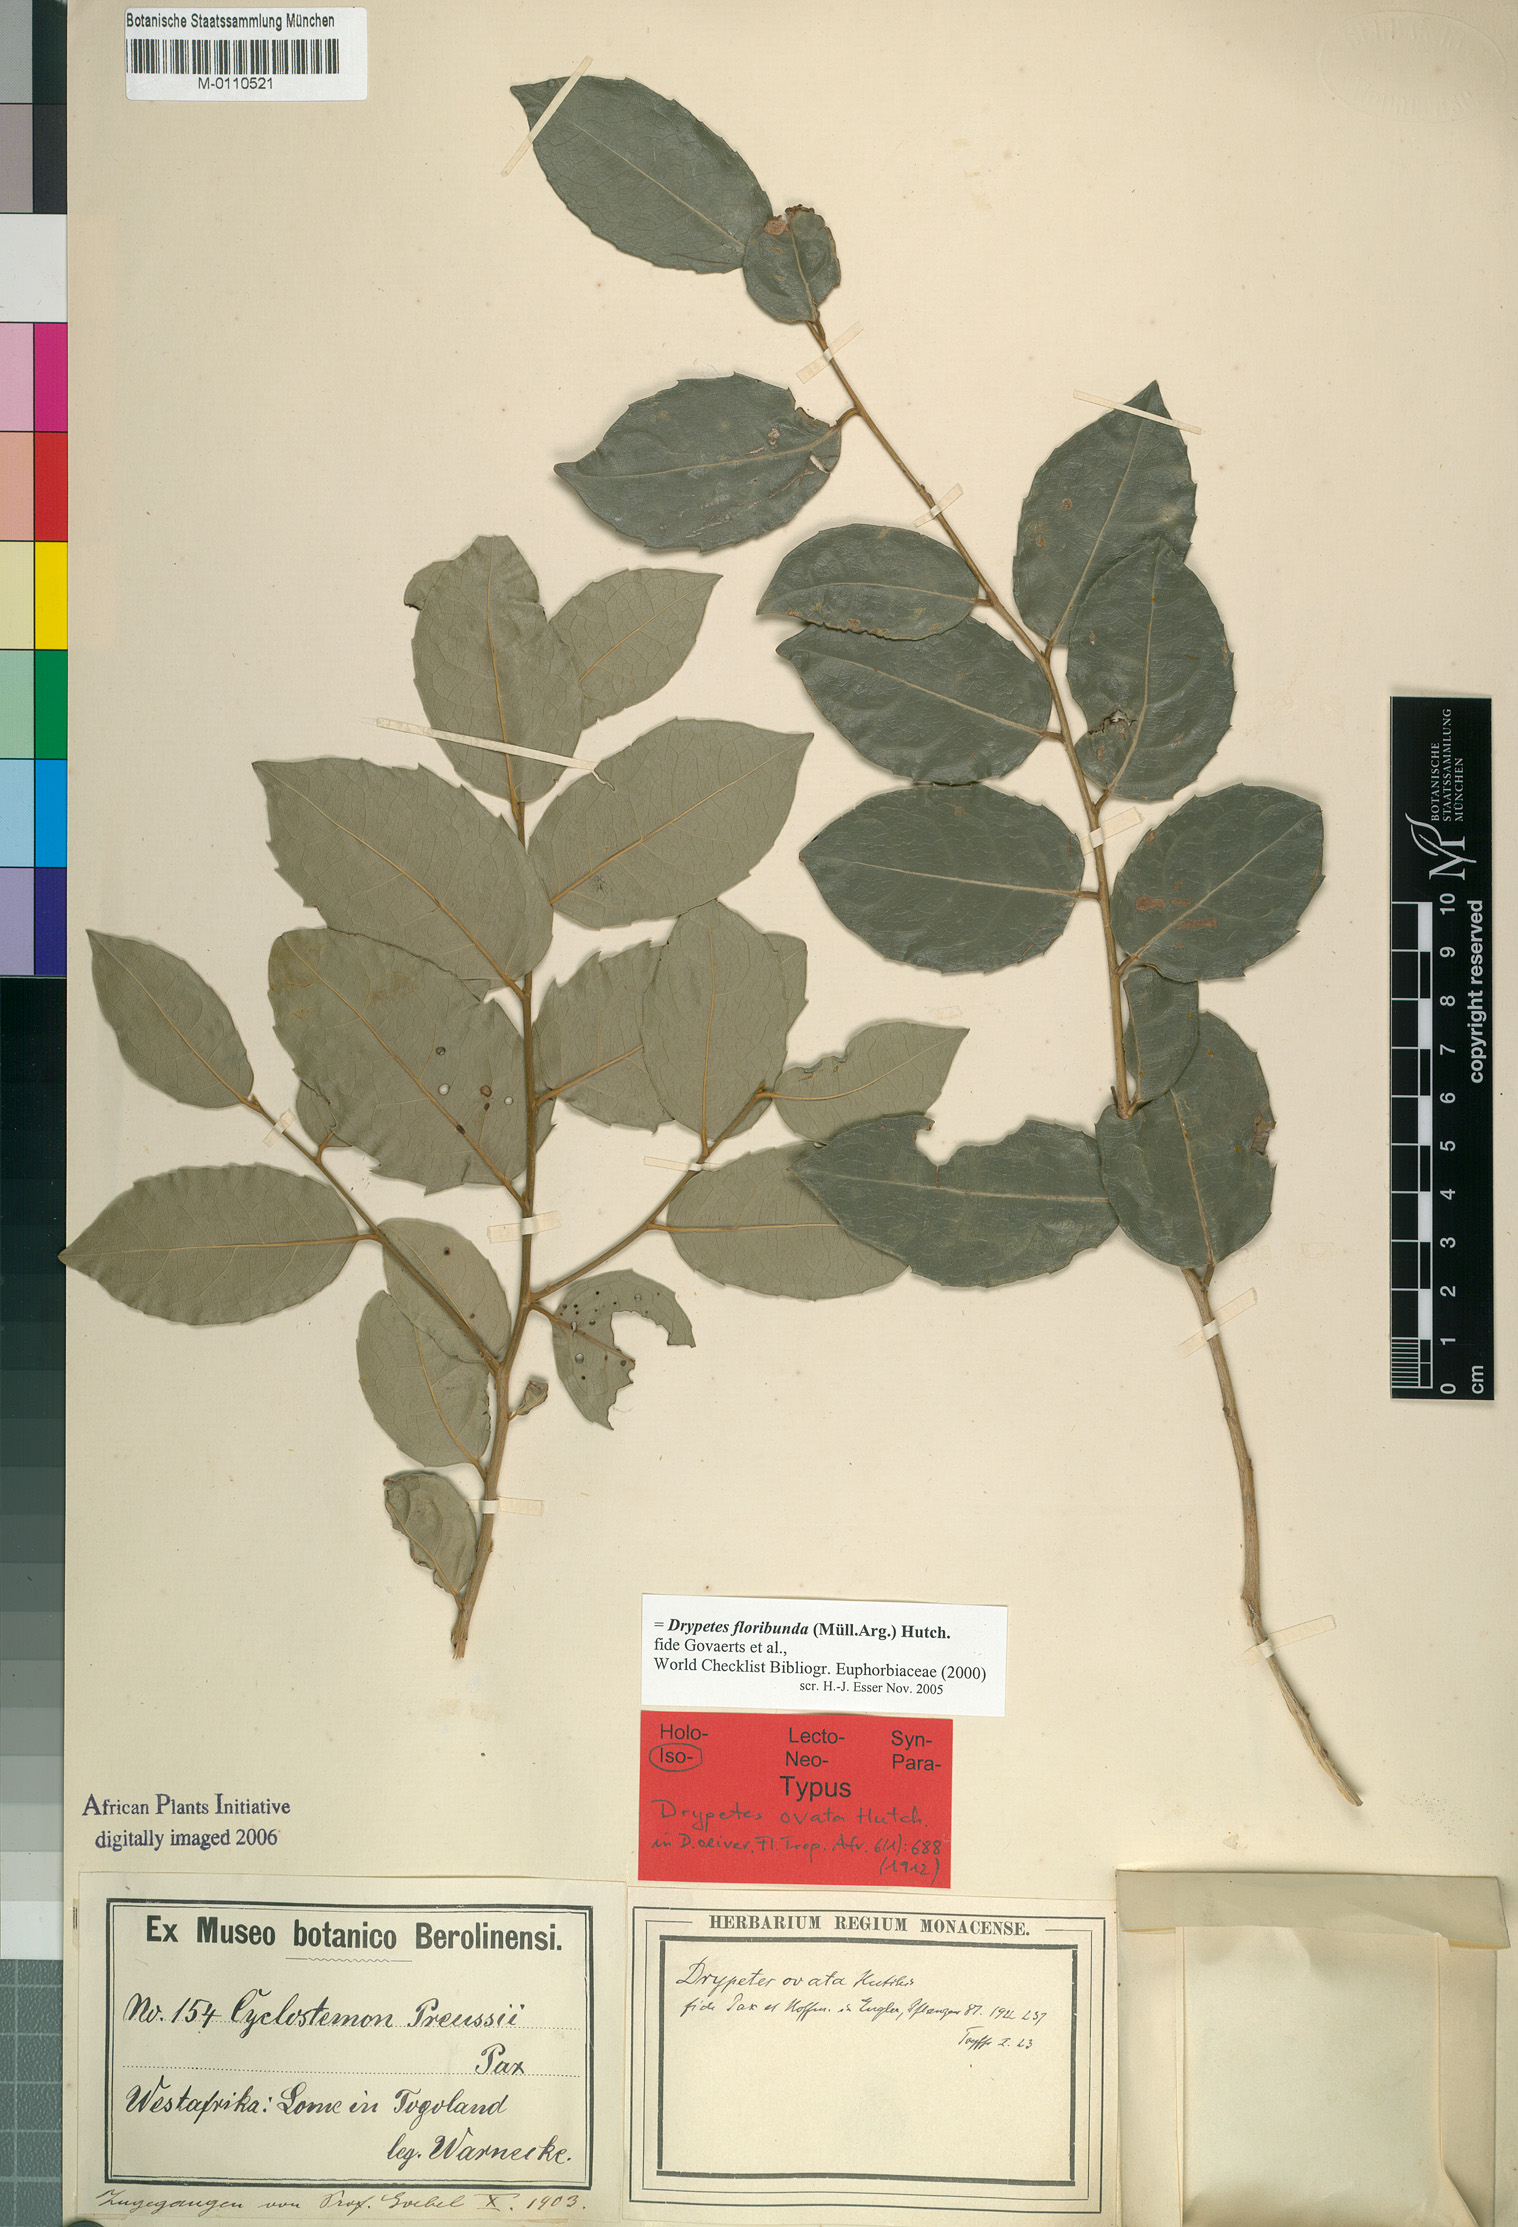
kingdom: Plantae
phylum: Tracheophyta
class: Magnoliopsida
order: Malpighiales
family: Putranjivaceae
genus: Drypetes
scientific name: Drypetes floribunda
